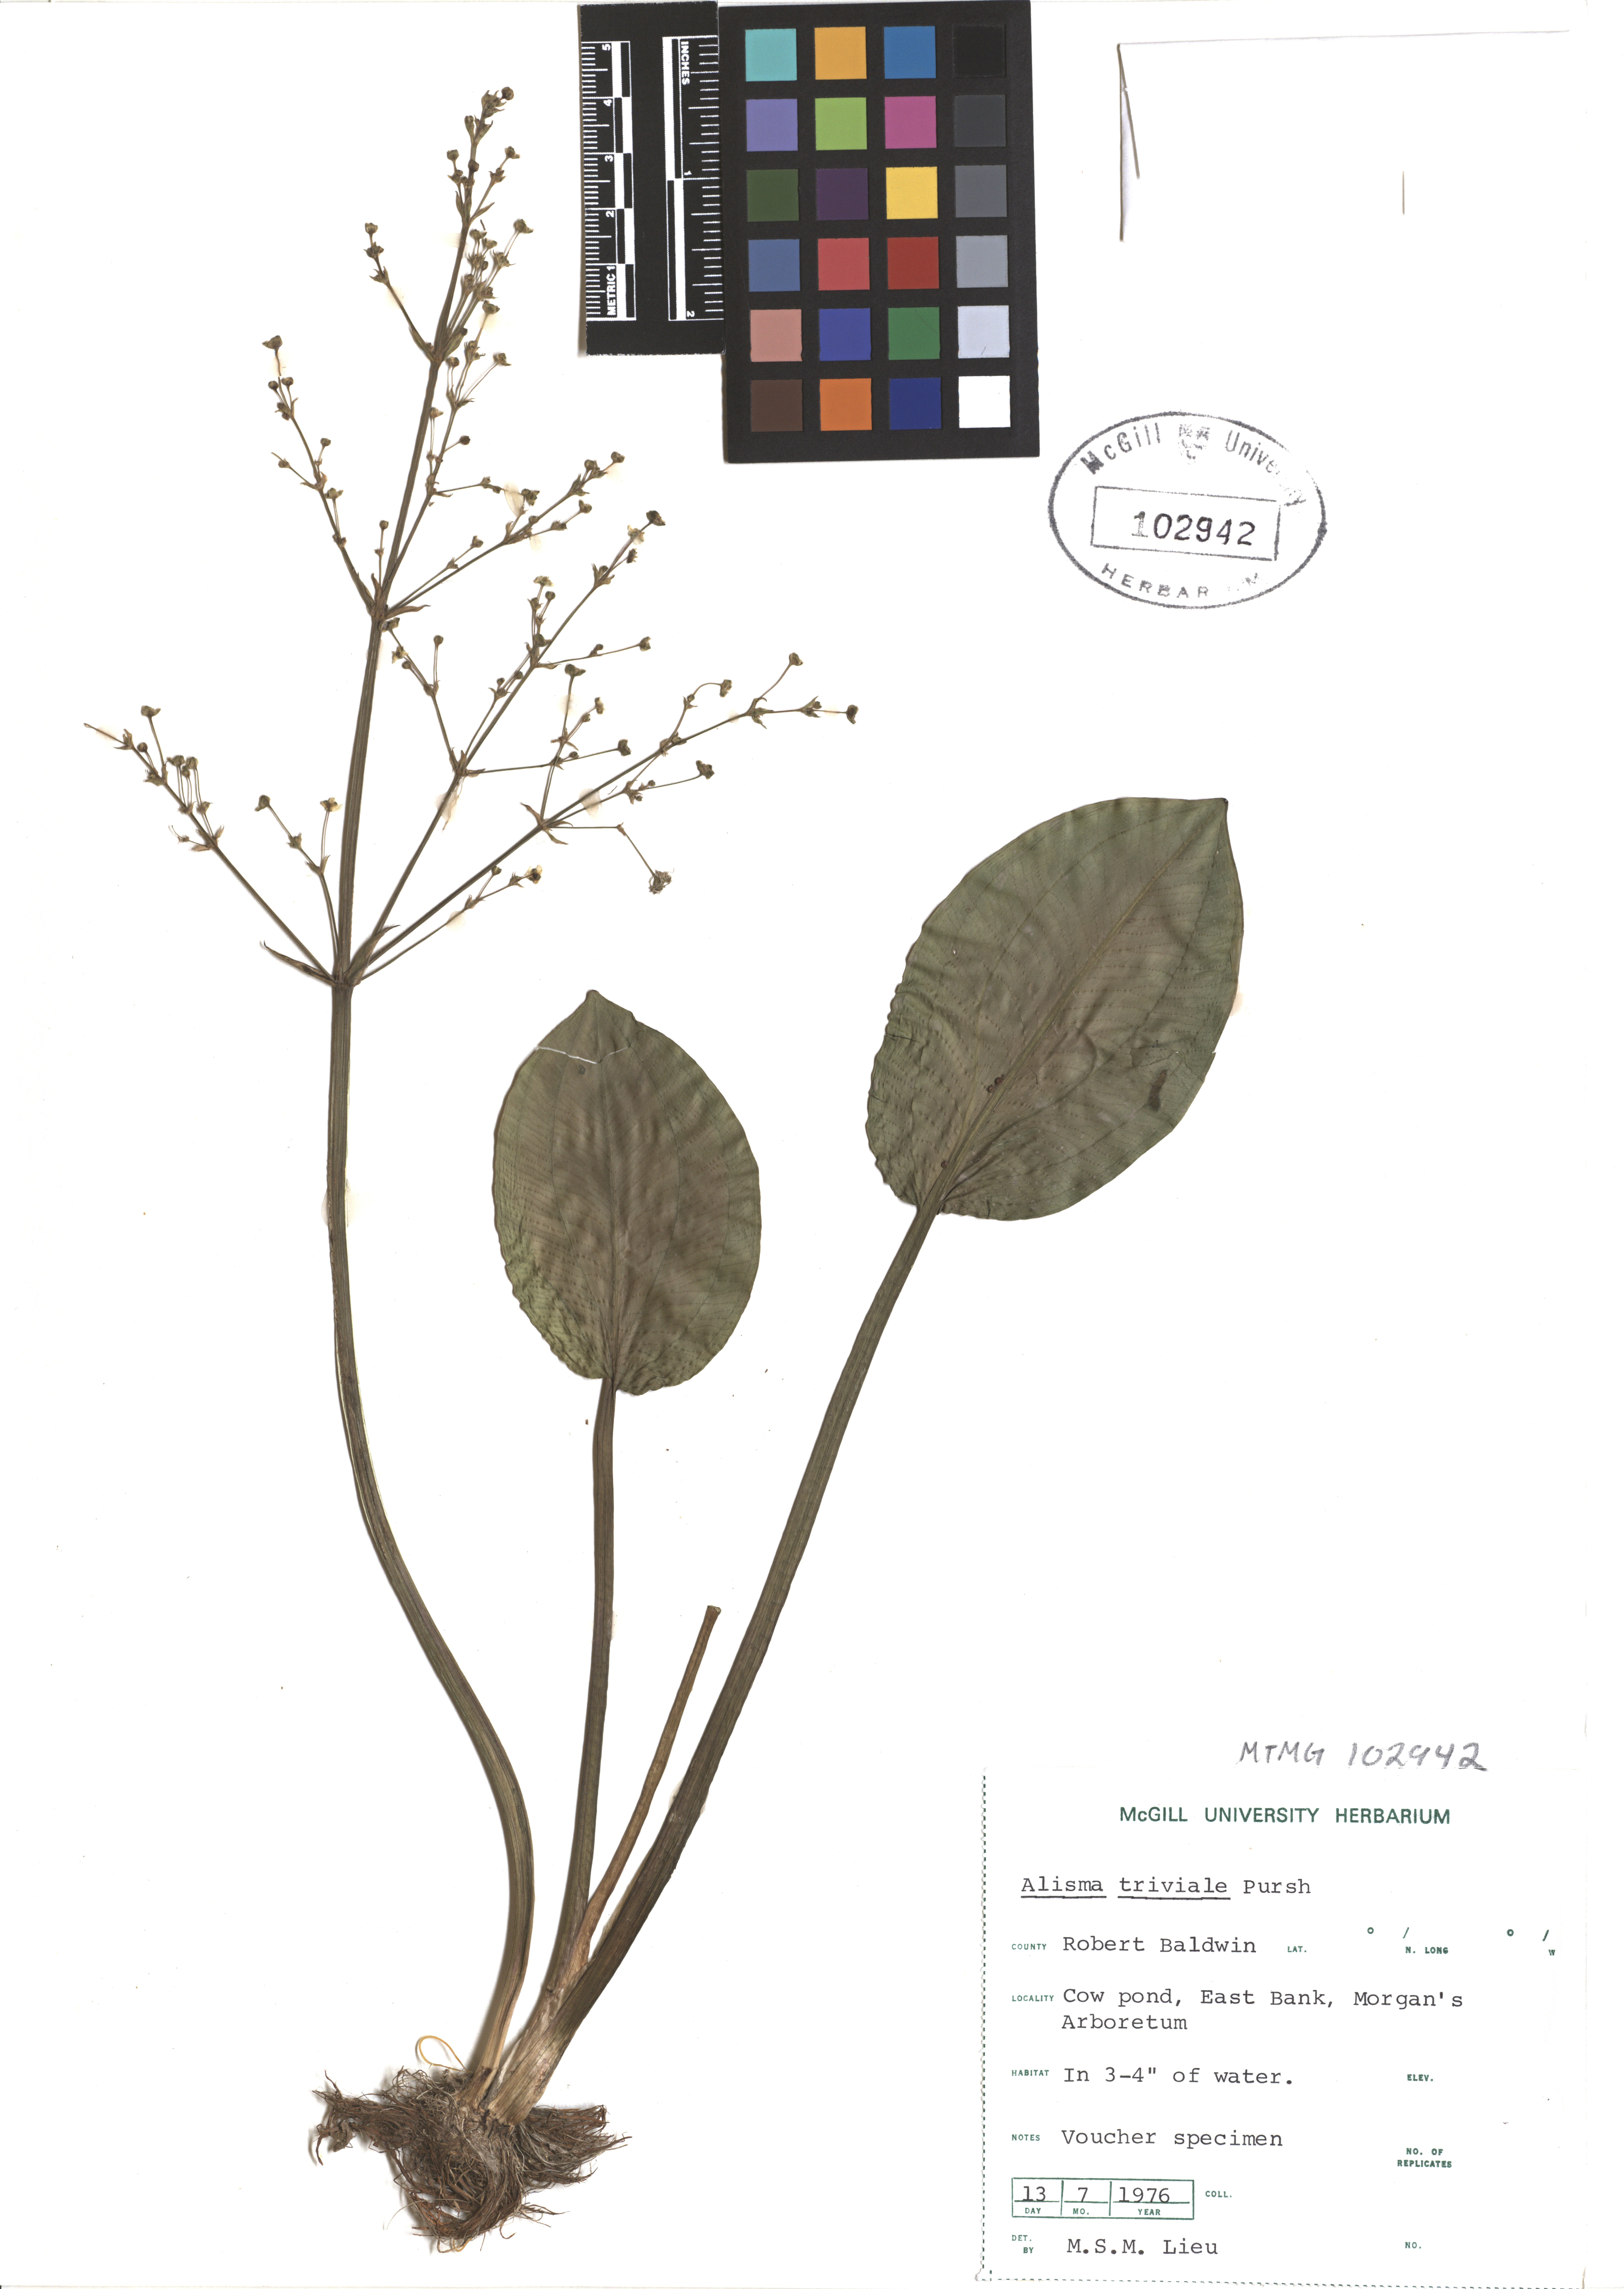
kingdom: Plantae
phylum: Tracheophyta
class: Liliopsida
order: Alismatales
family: Alismataceae
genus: Alisma
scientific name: Alisma triviale
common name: Northern water-plantain
